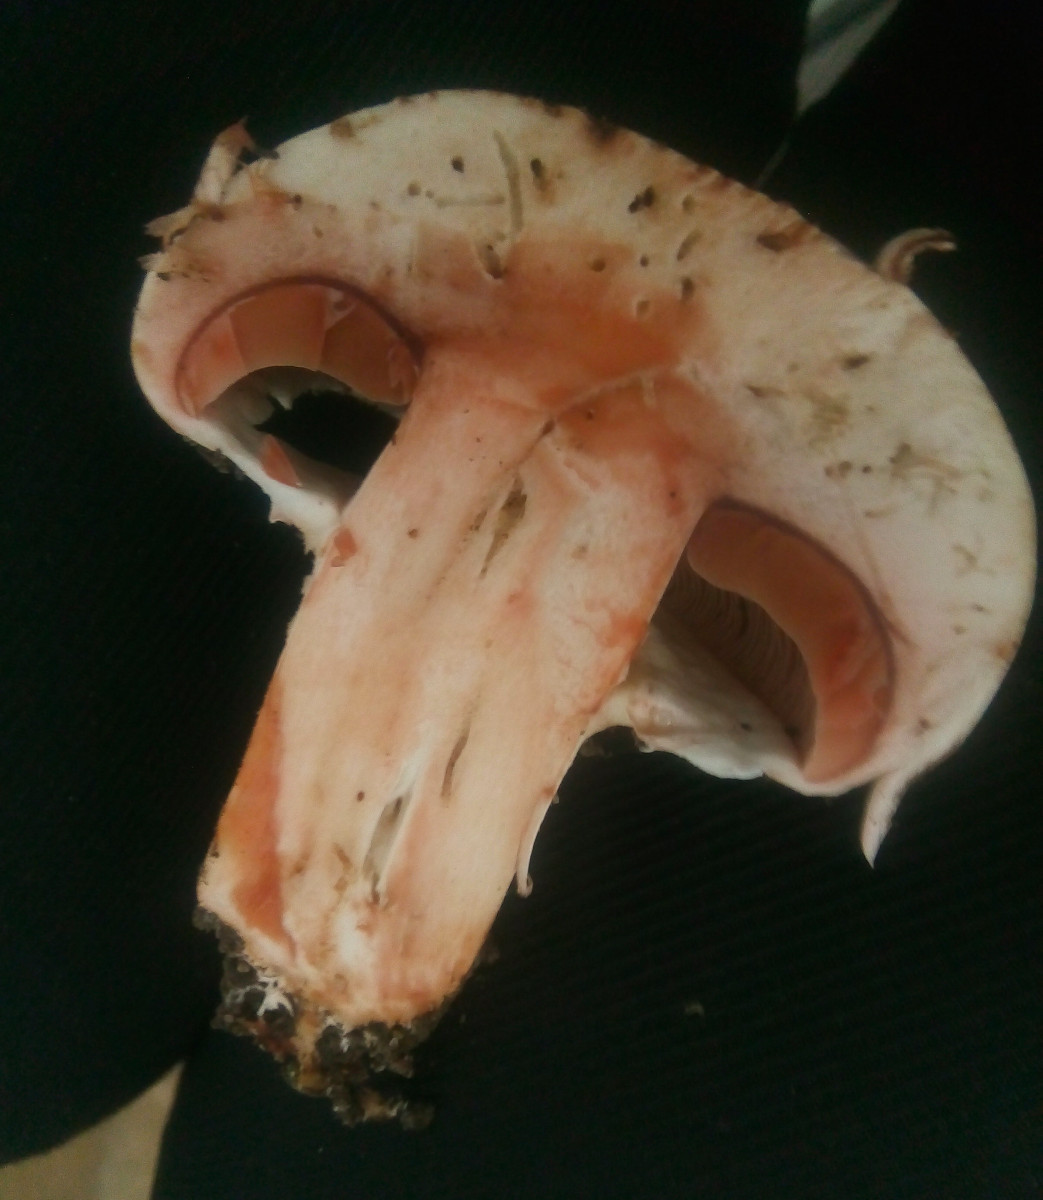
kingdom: Fungi
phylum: Basidiomycota
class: Agaricomycetes
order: Agaricales
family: Agaricaceae
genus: Agaricus
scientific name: Agaricus
